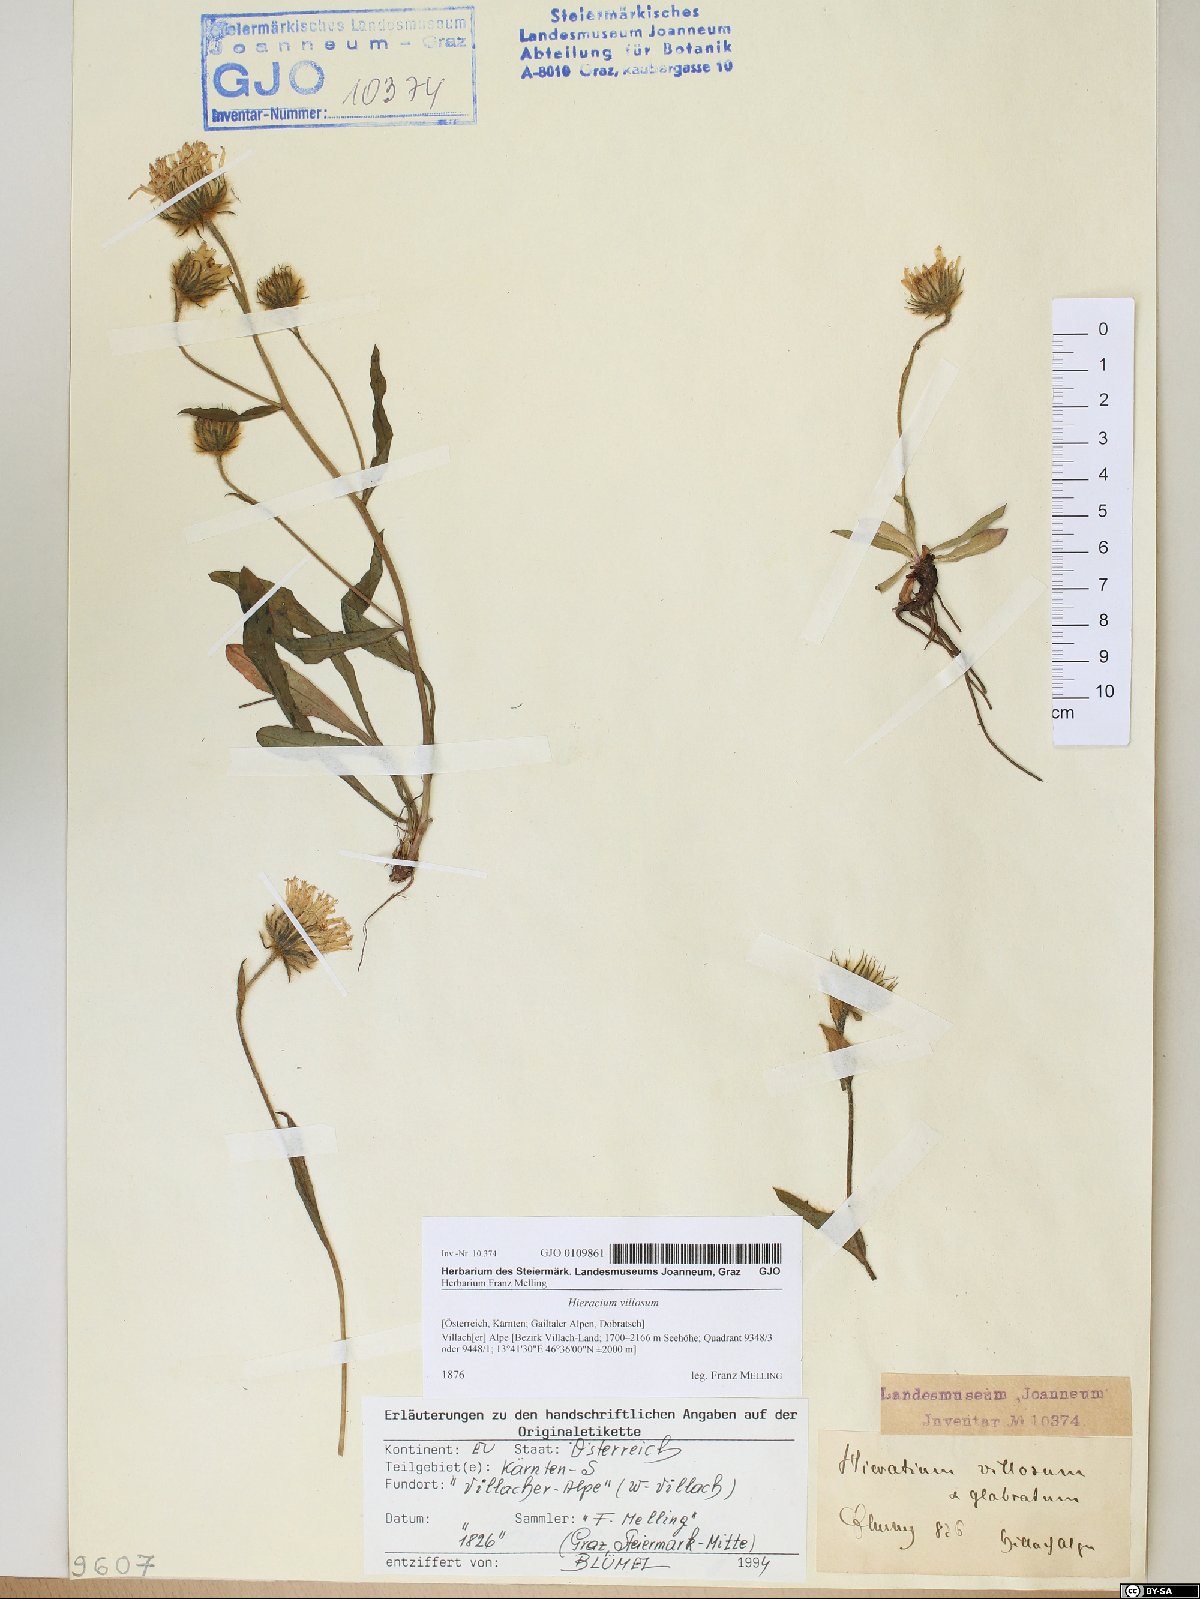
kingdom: Plantae
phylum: Tracheophyta
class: Magnoliopsida
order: Asterales
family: Asteraceae
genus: Hieracium
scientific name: Hieracium villosum
